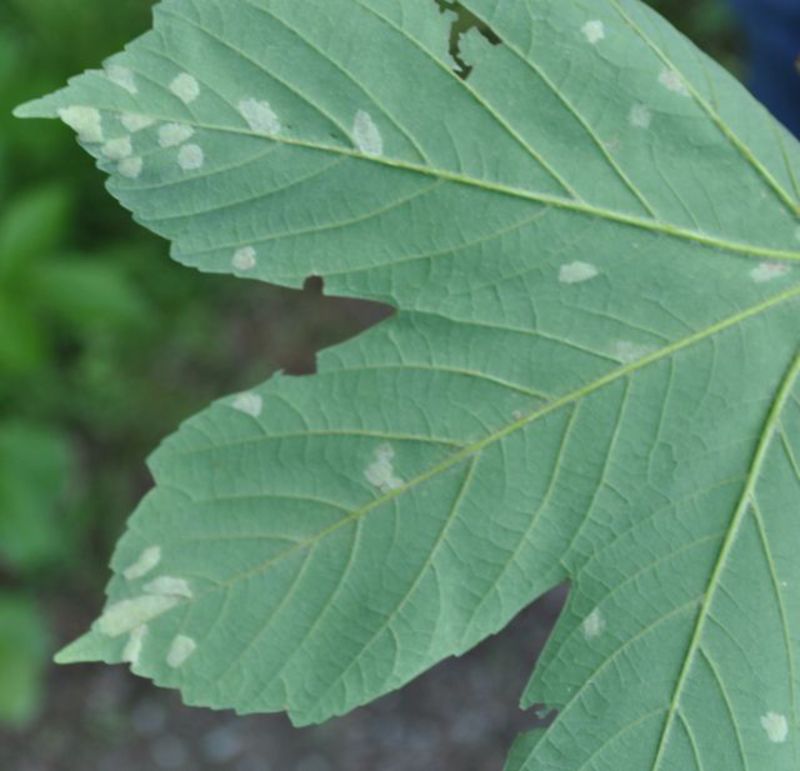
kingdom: Animalia
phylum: Arthropoda
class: Arachnida
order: Trombidiformes
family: Eriophyidae
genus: Aceria
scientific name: Aceria macrocheluserinea
